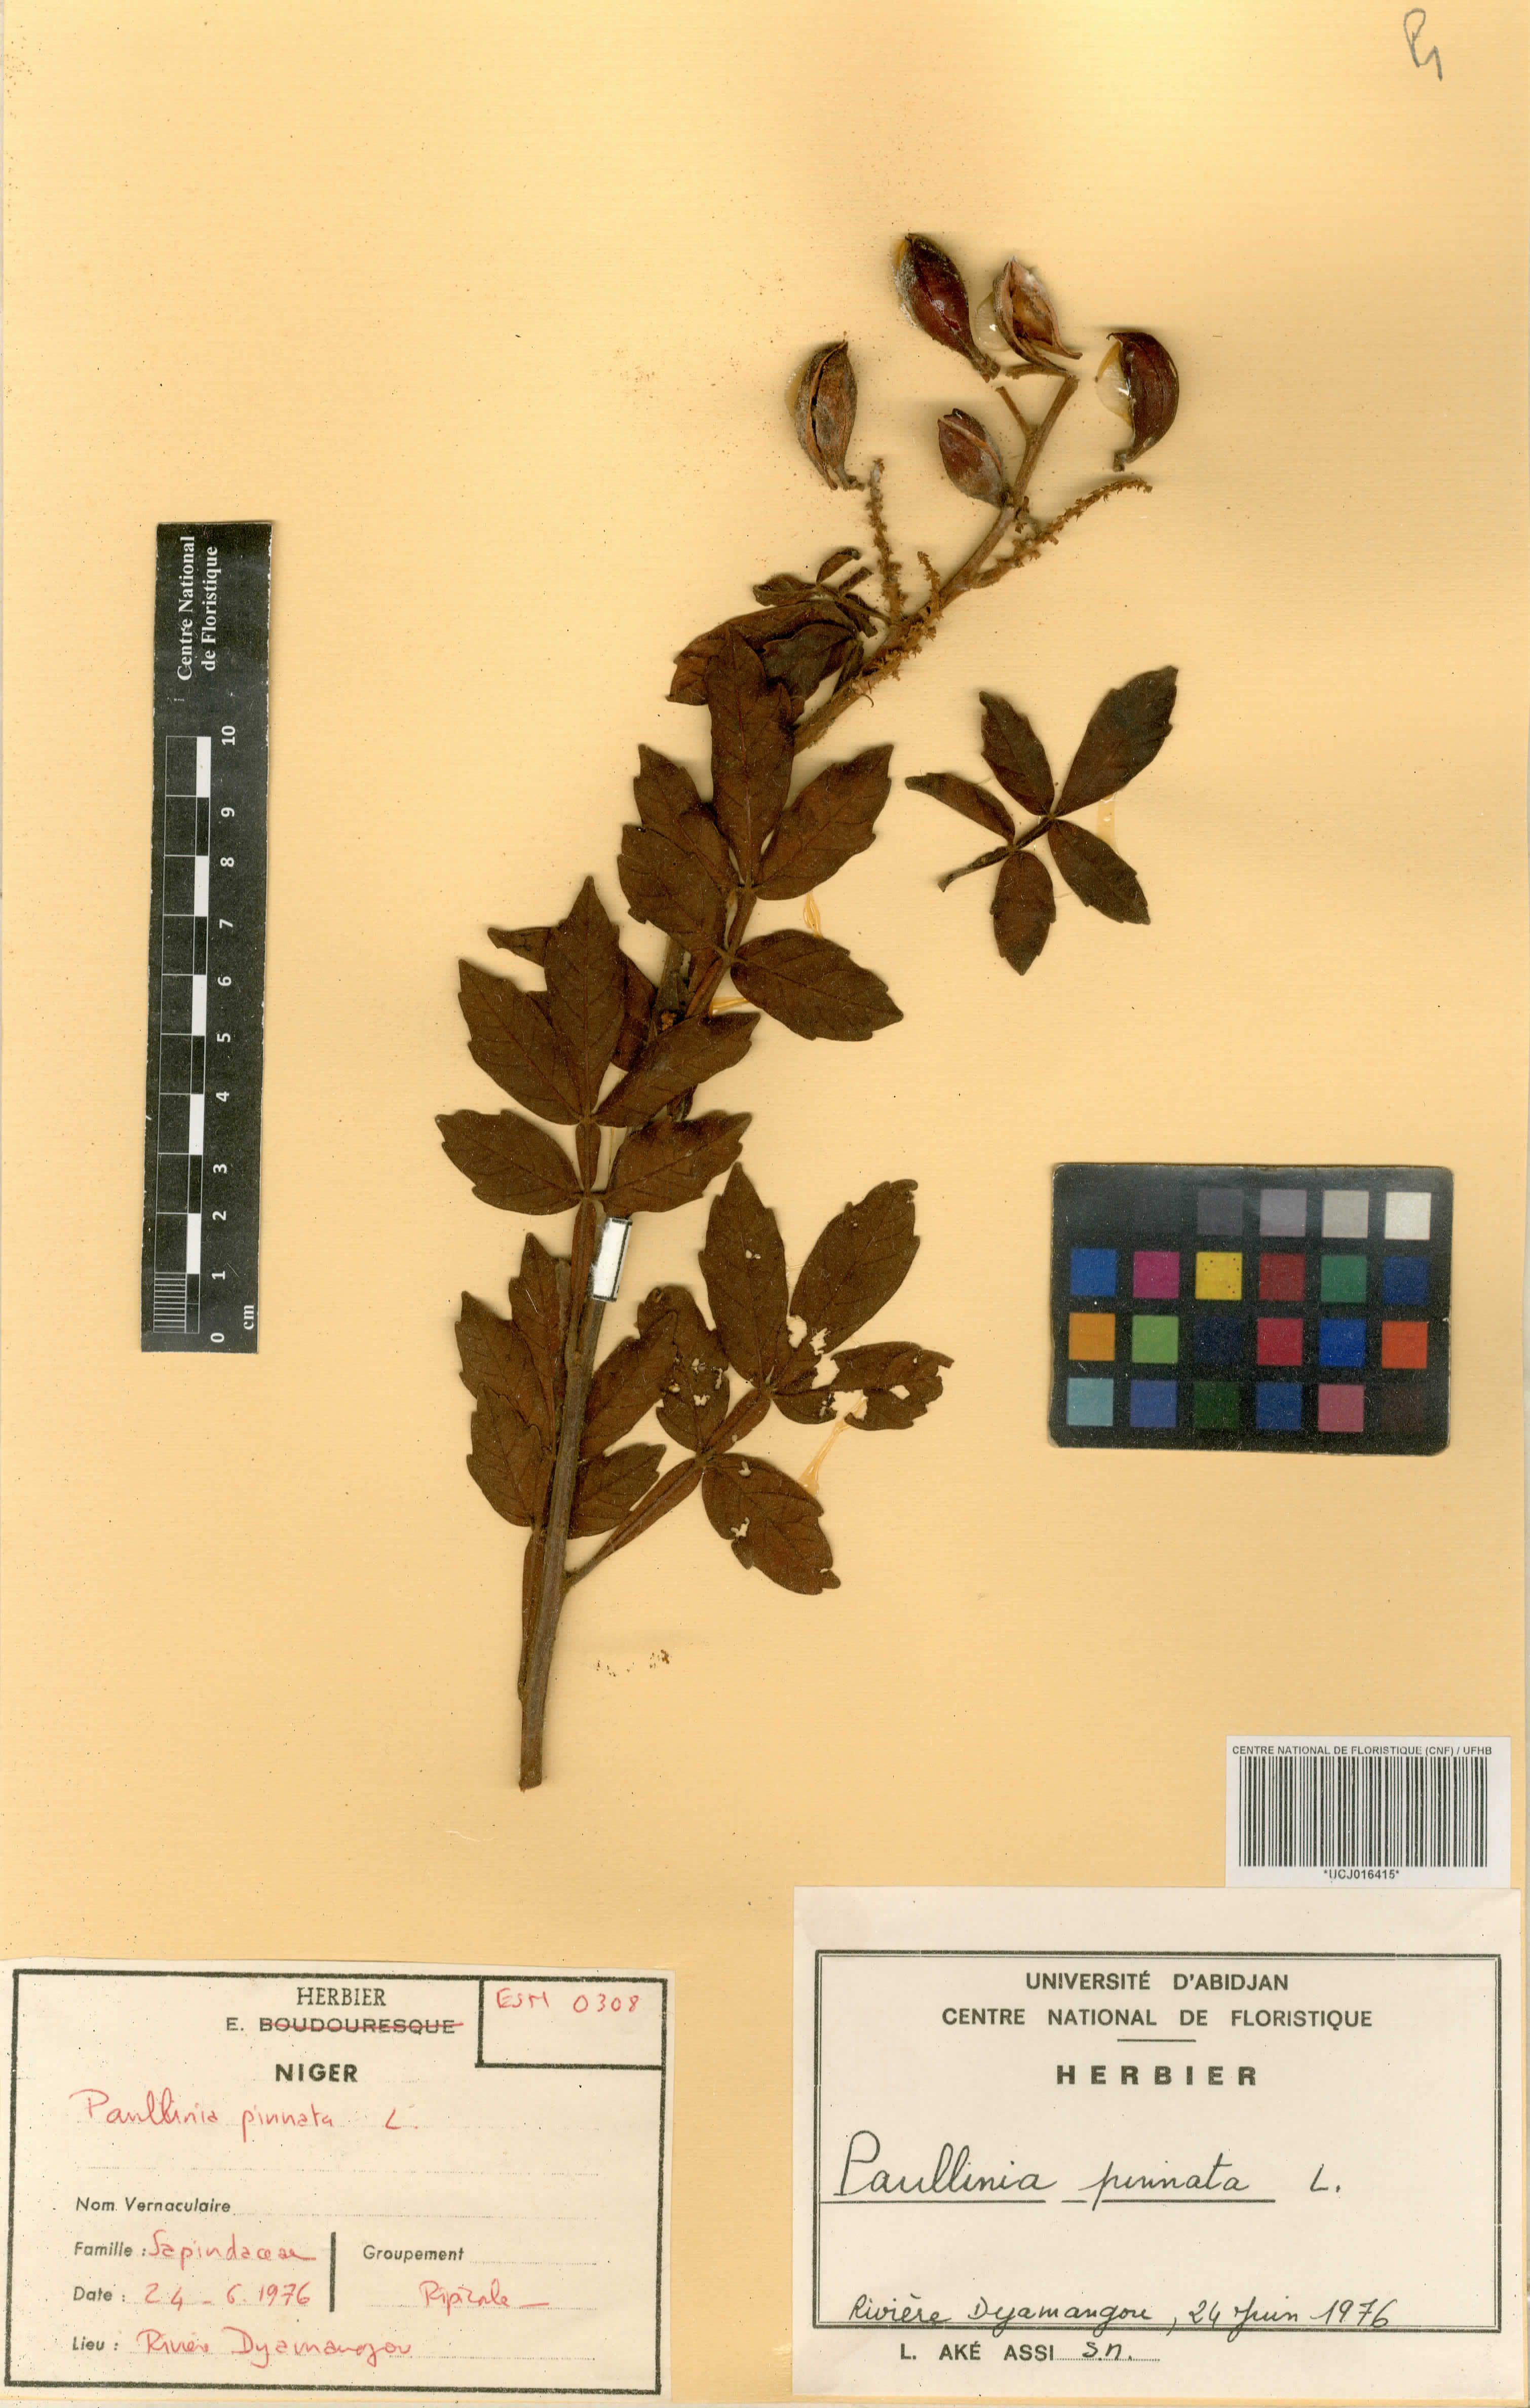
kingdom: Plantae
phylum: Tracheophyta
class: Magnoliopsida
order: Sapindales
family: Sapindaceae
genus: Paullinia
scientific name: Paullinia pinnata
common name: Barbasco
